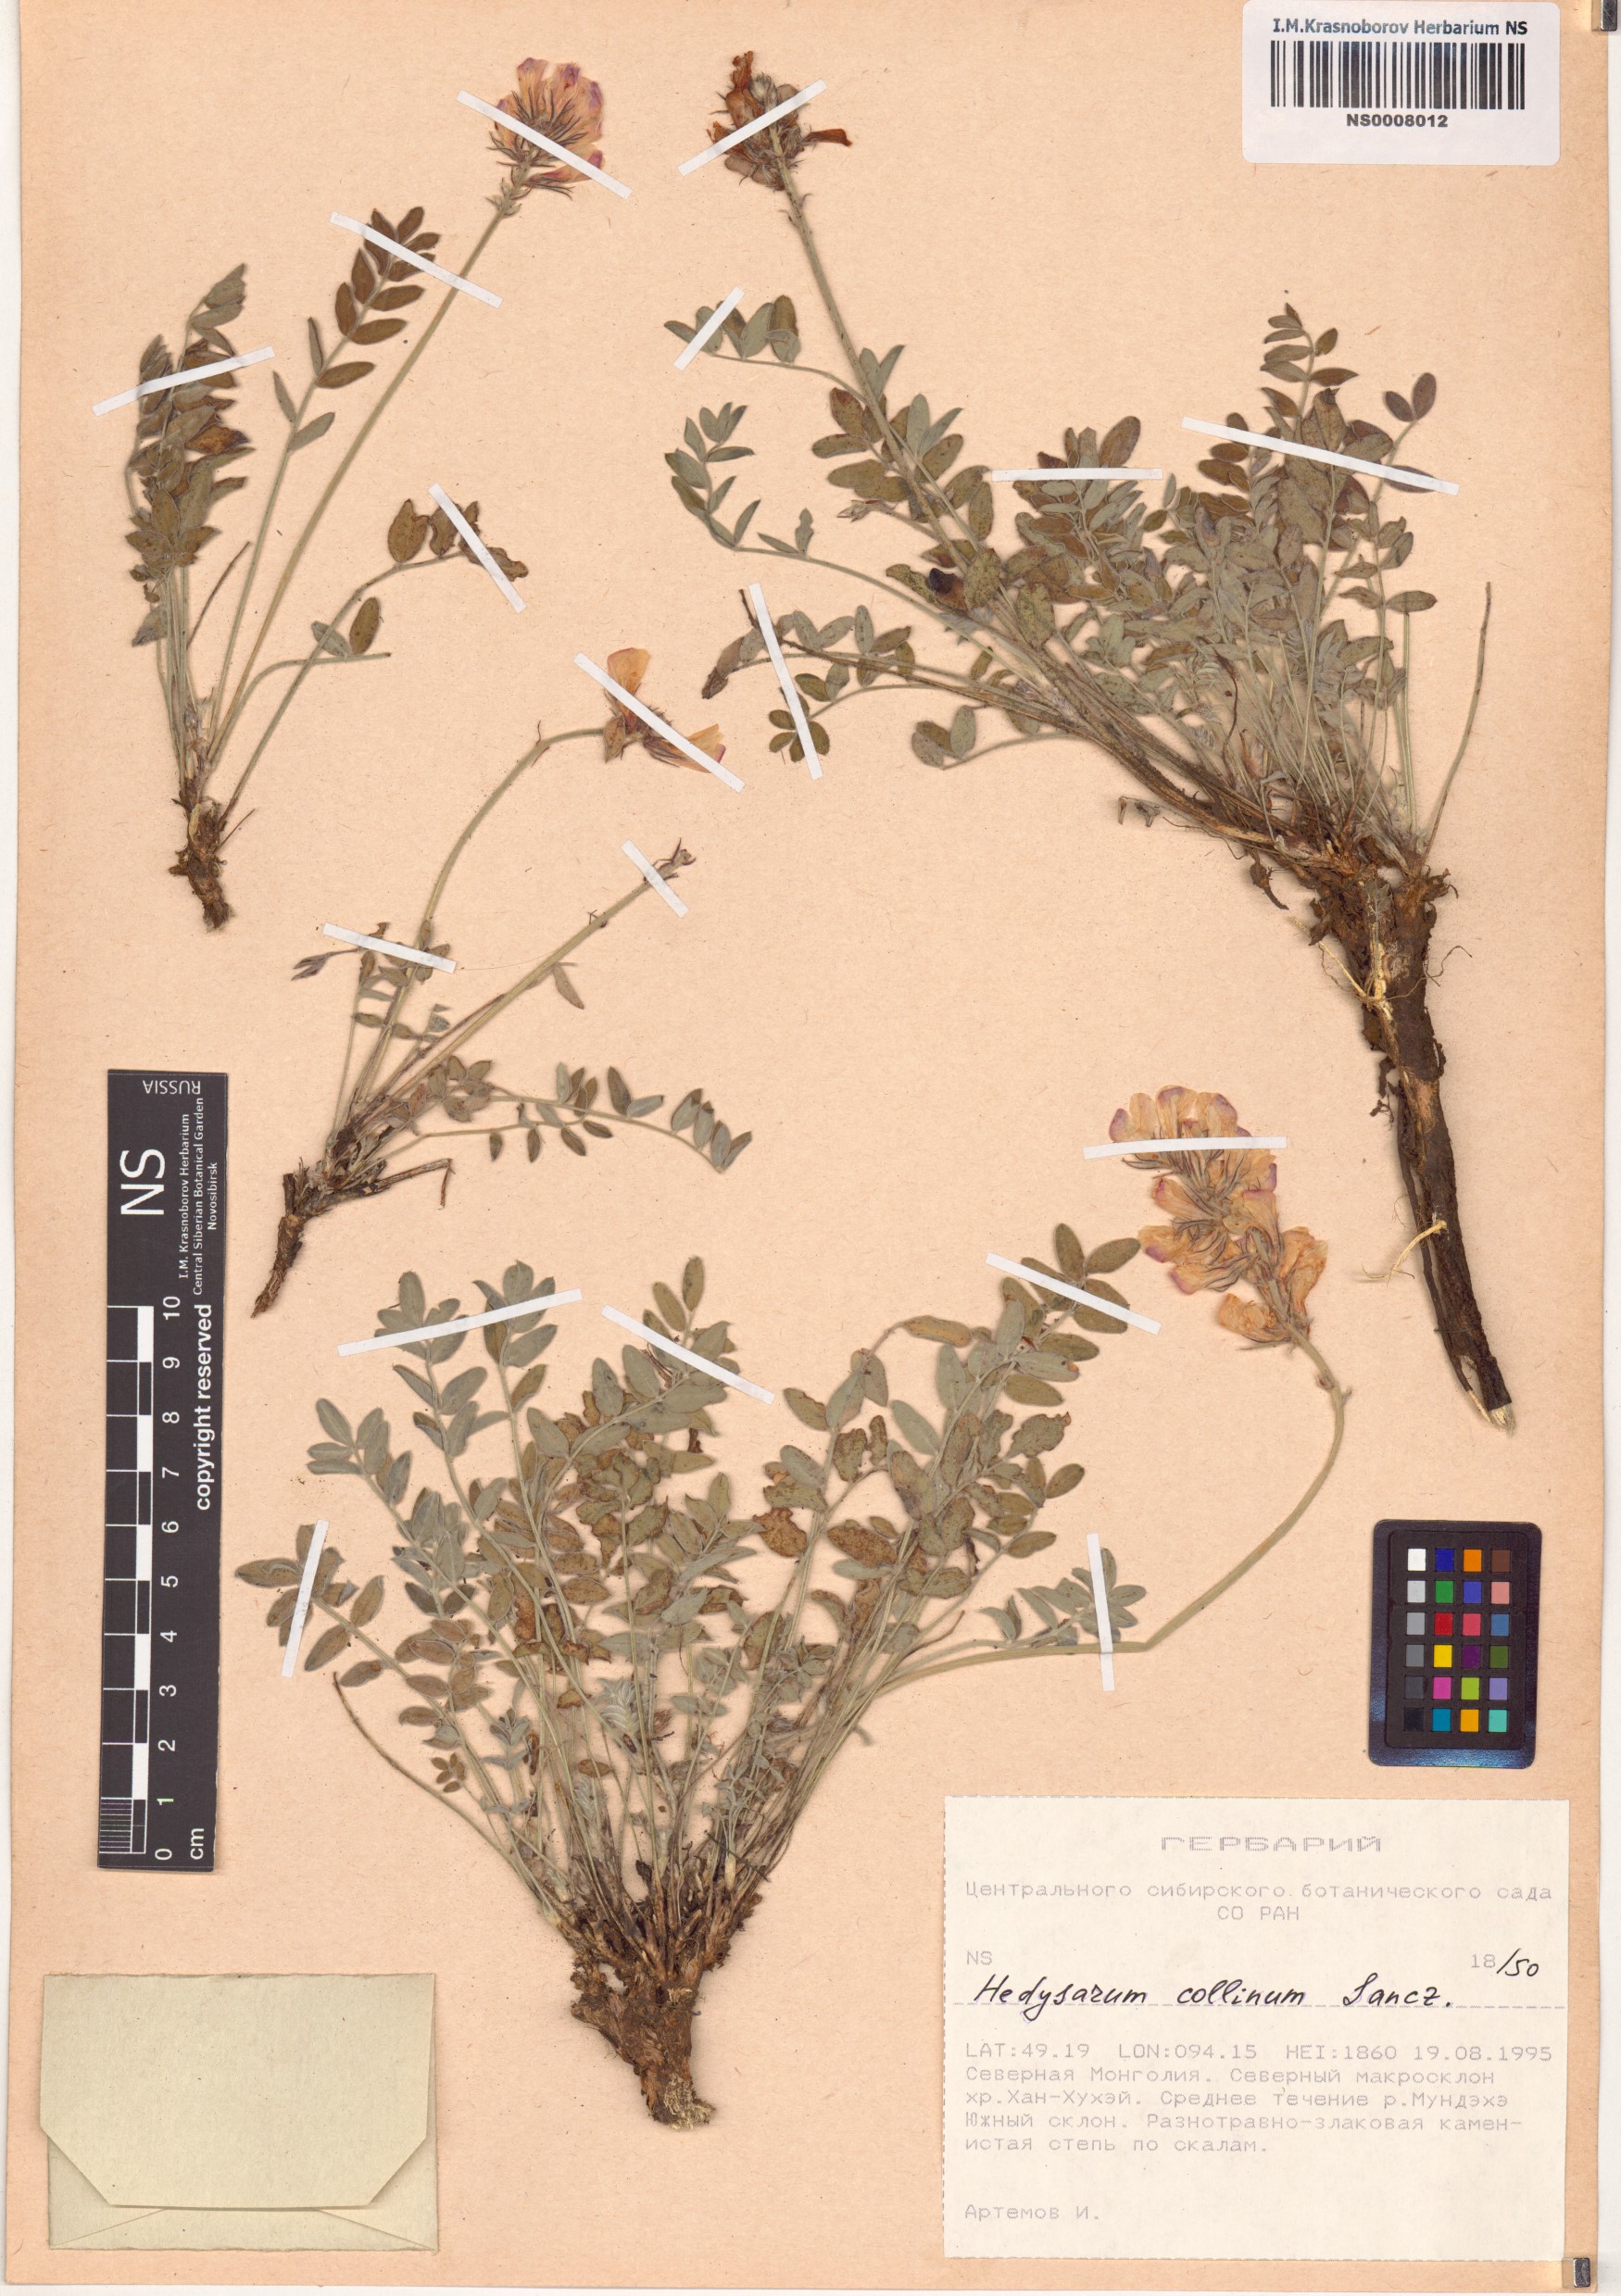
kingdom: Plantae
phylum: Tracheophyta
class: Magnoliopsida
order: Fabales
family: Fabaceae
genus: Pleurolobus
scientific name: Pleurolobus gangeticus
